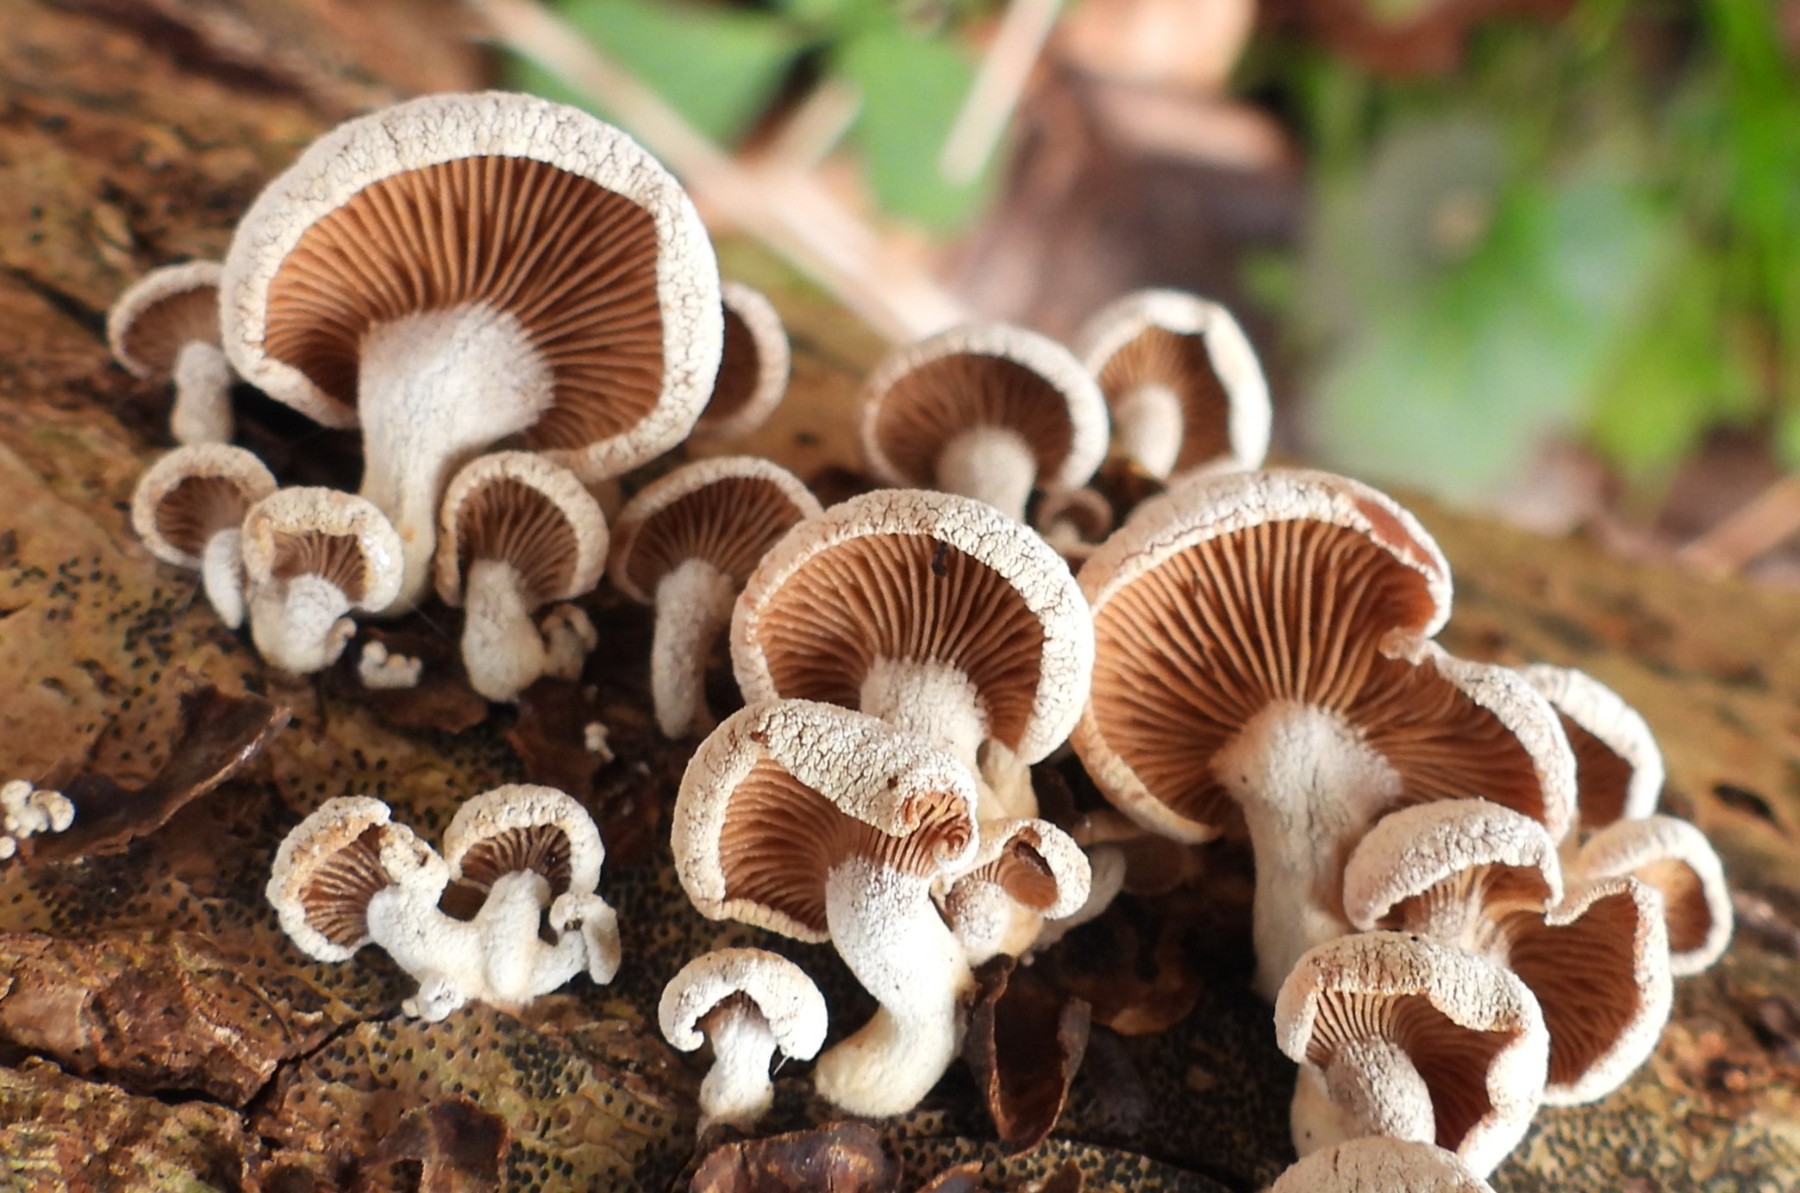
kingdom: Fungi
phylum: Basidiomycota
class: Agaricomycetes
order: Agaricales
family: Mycenaceae
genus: Panellus
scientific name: Panellus stipticus
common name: kliddet epaulethat
